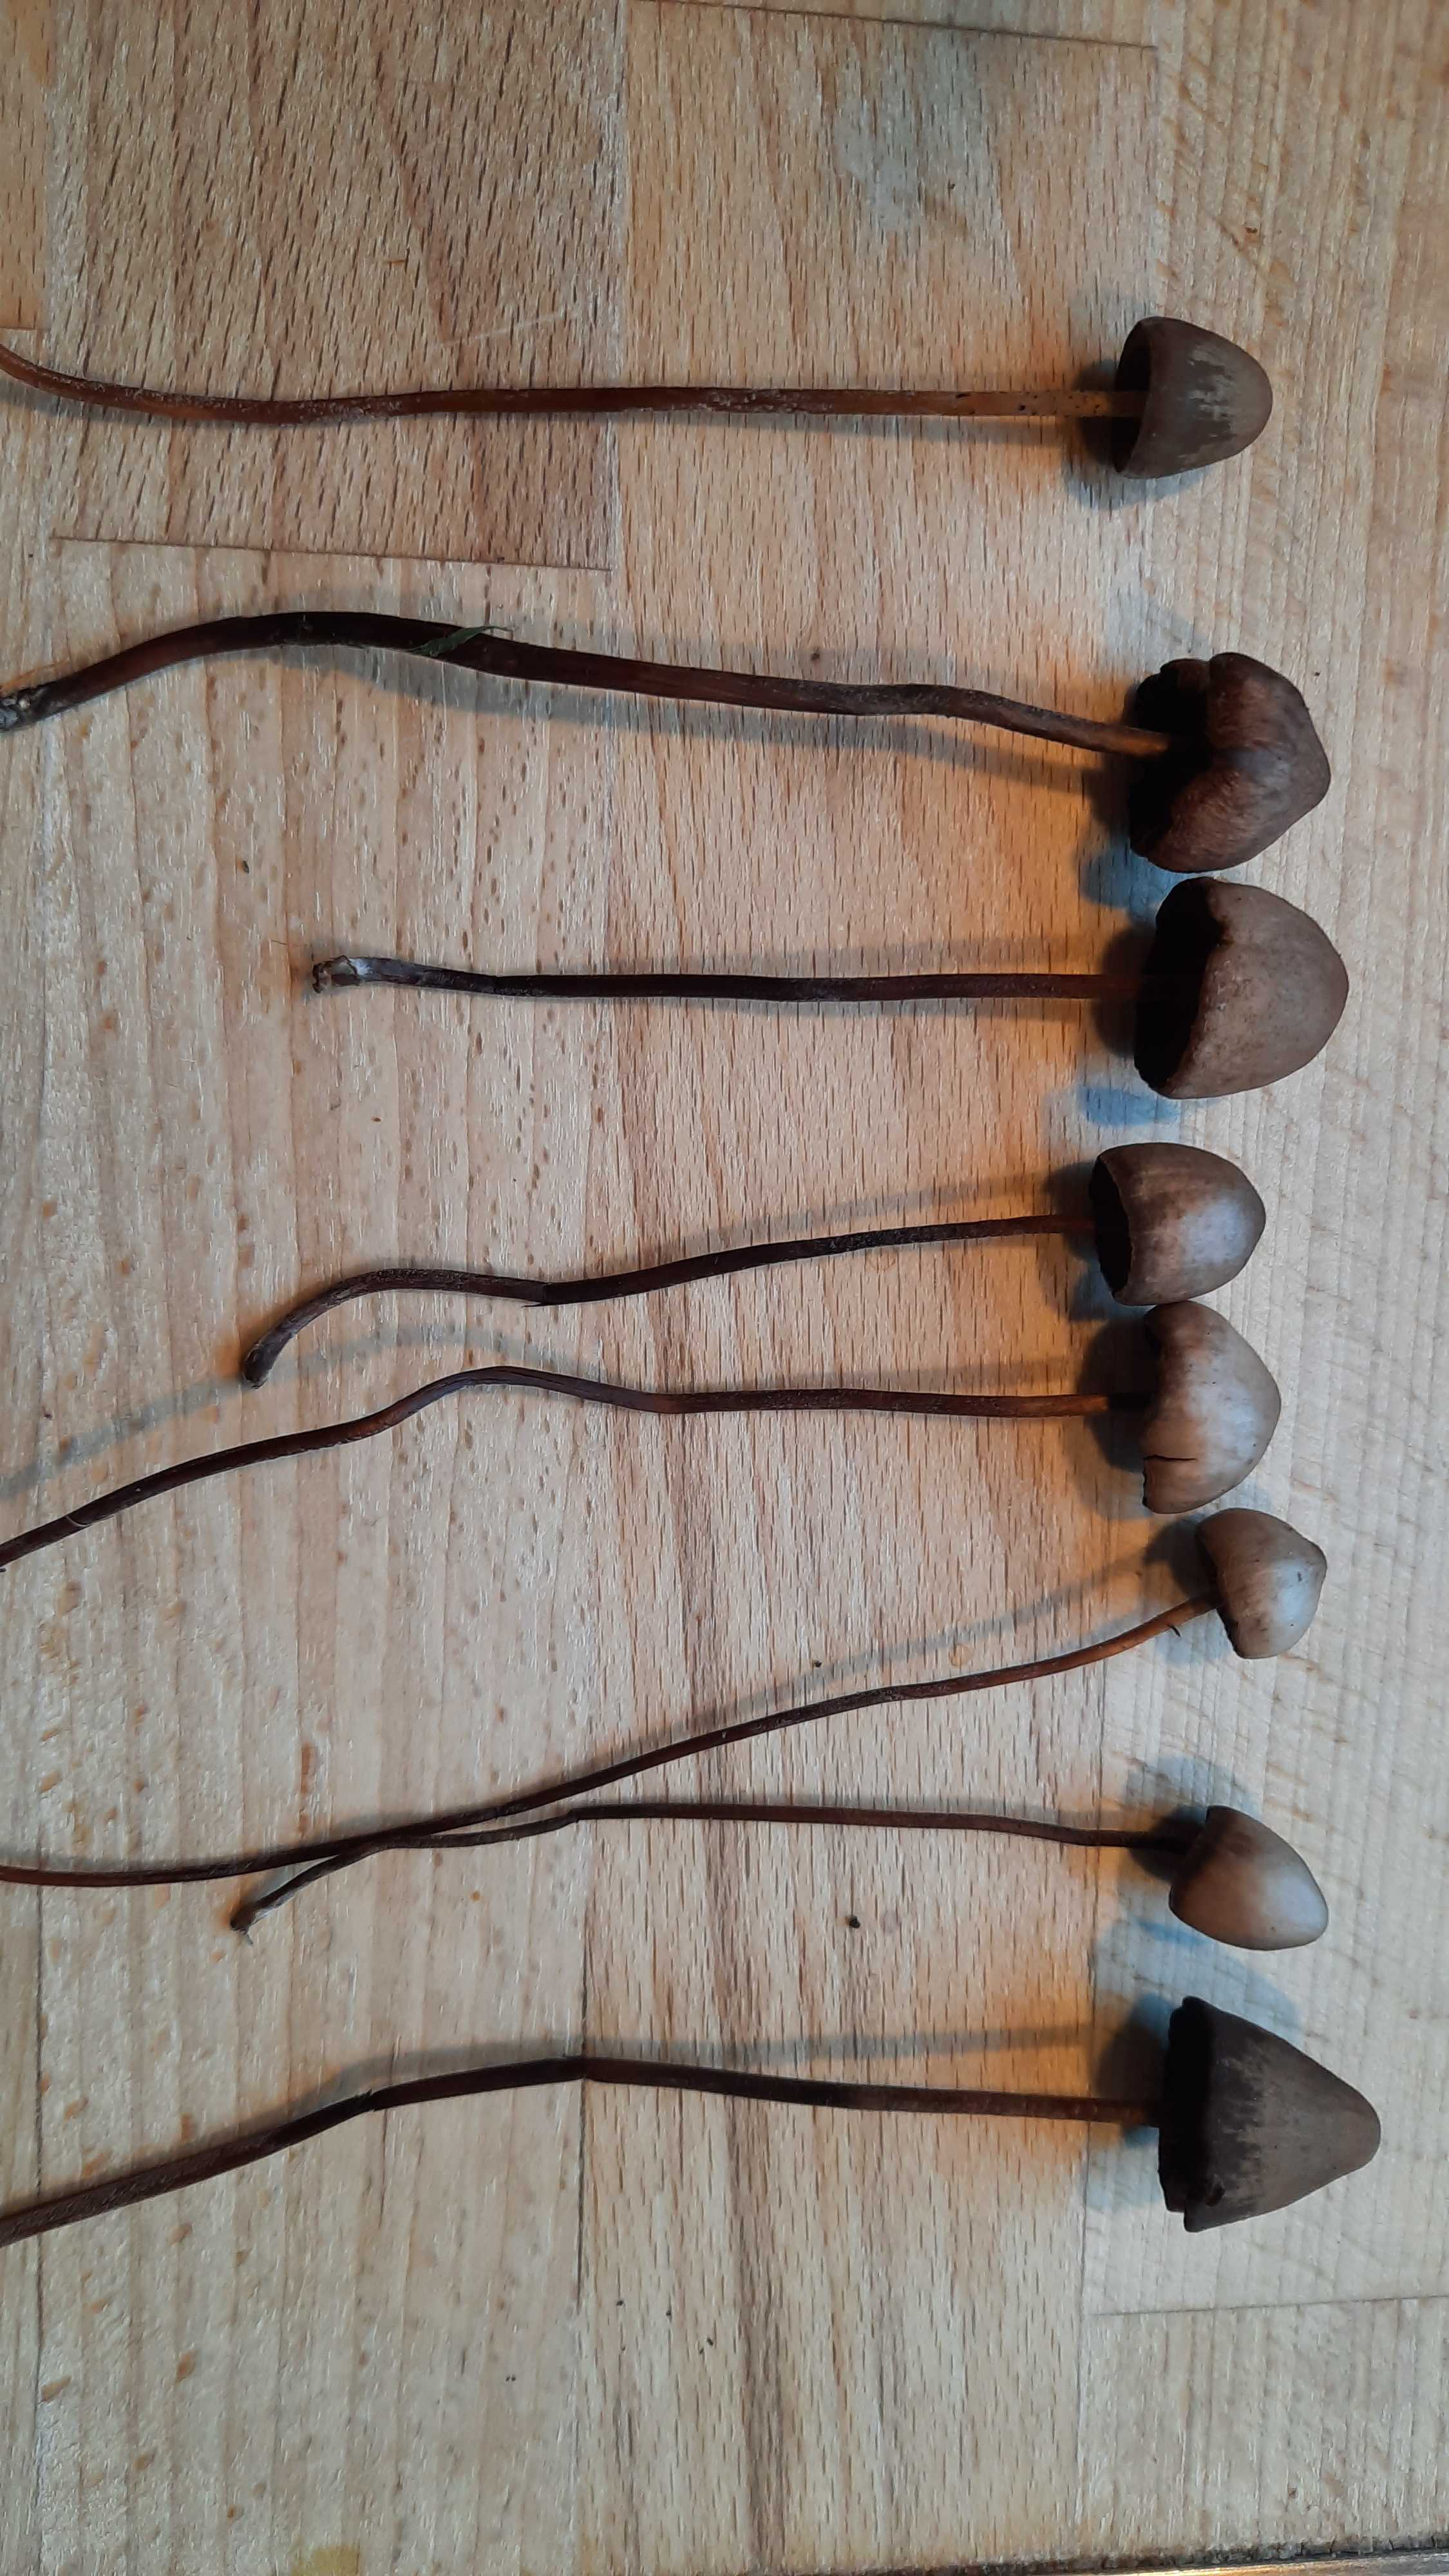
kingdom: Fungi
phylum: Basidiomycota
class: Agaricomycetes
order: Agaricales
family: Bolbitiaceae
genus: Panaeolus
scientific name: Panaeolus acuminatus
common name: høj glanshat
